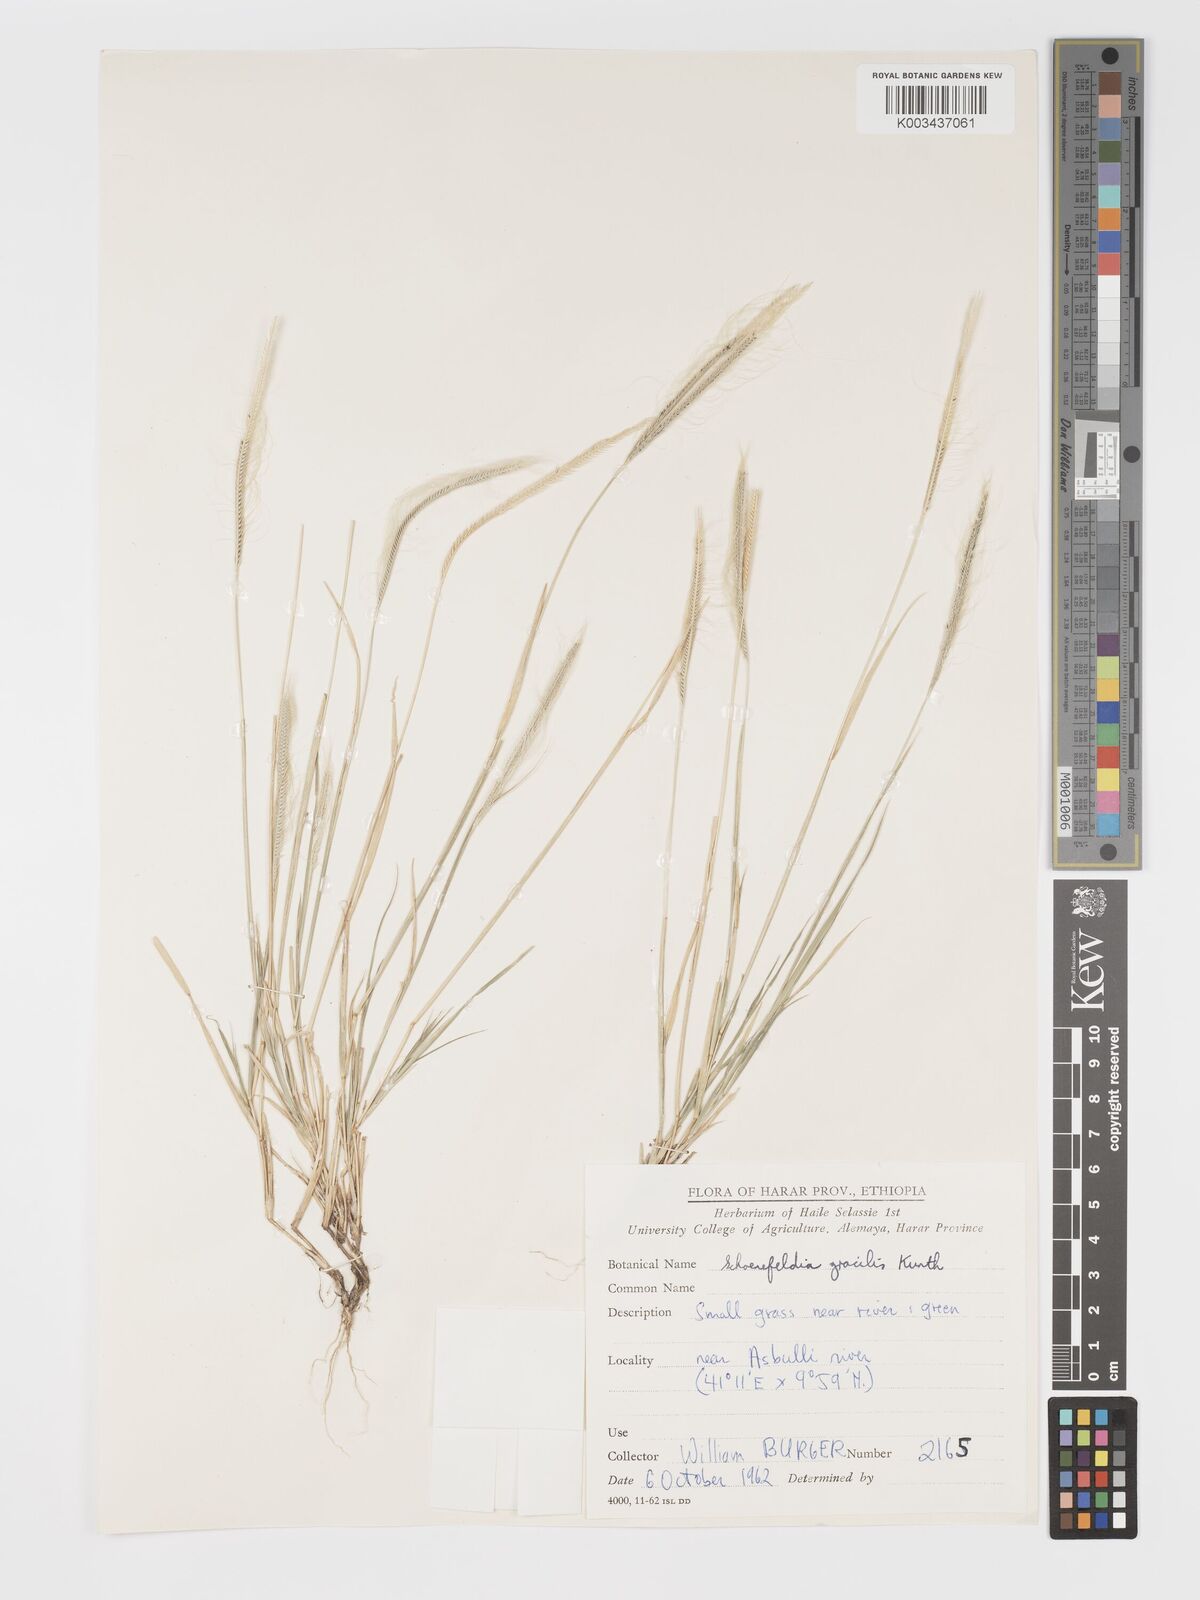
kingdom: Plantae
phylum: Tracheophyta
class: Liliopsida
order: Poales
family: Poaceae
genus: Schoenefeldia
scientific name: Schoenefeldia gracilis
